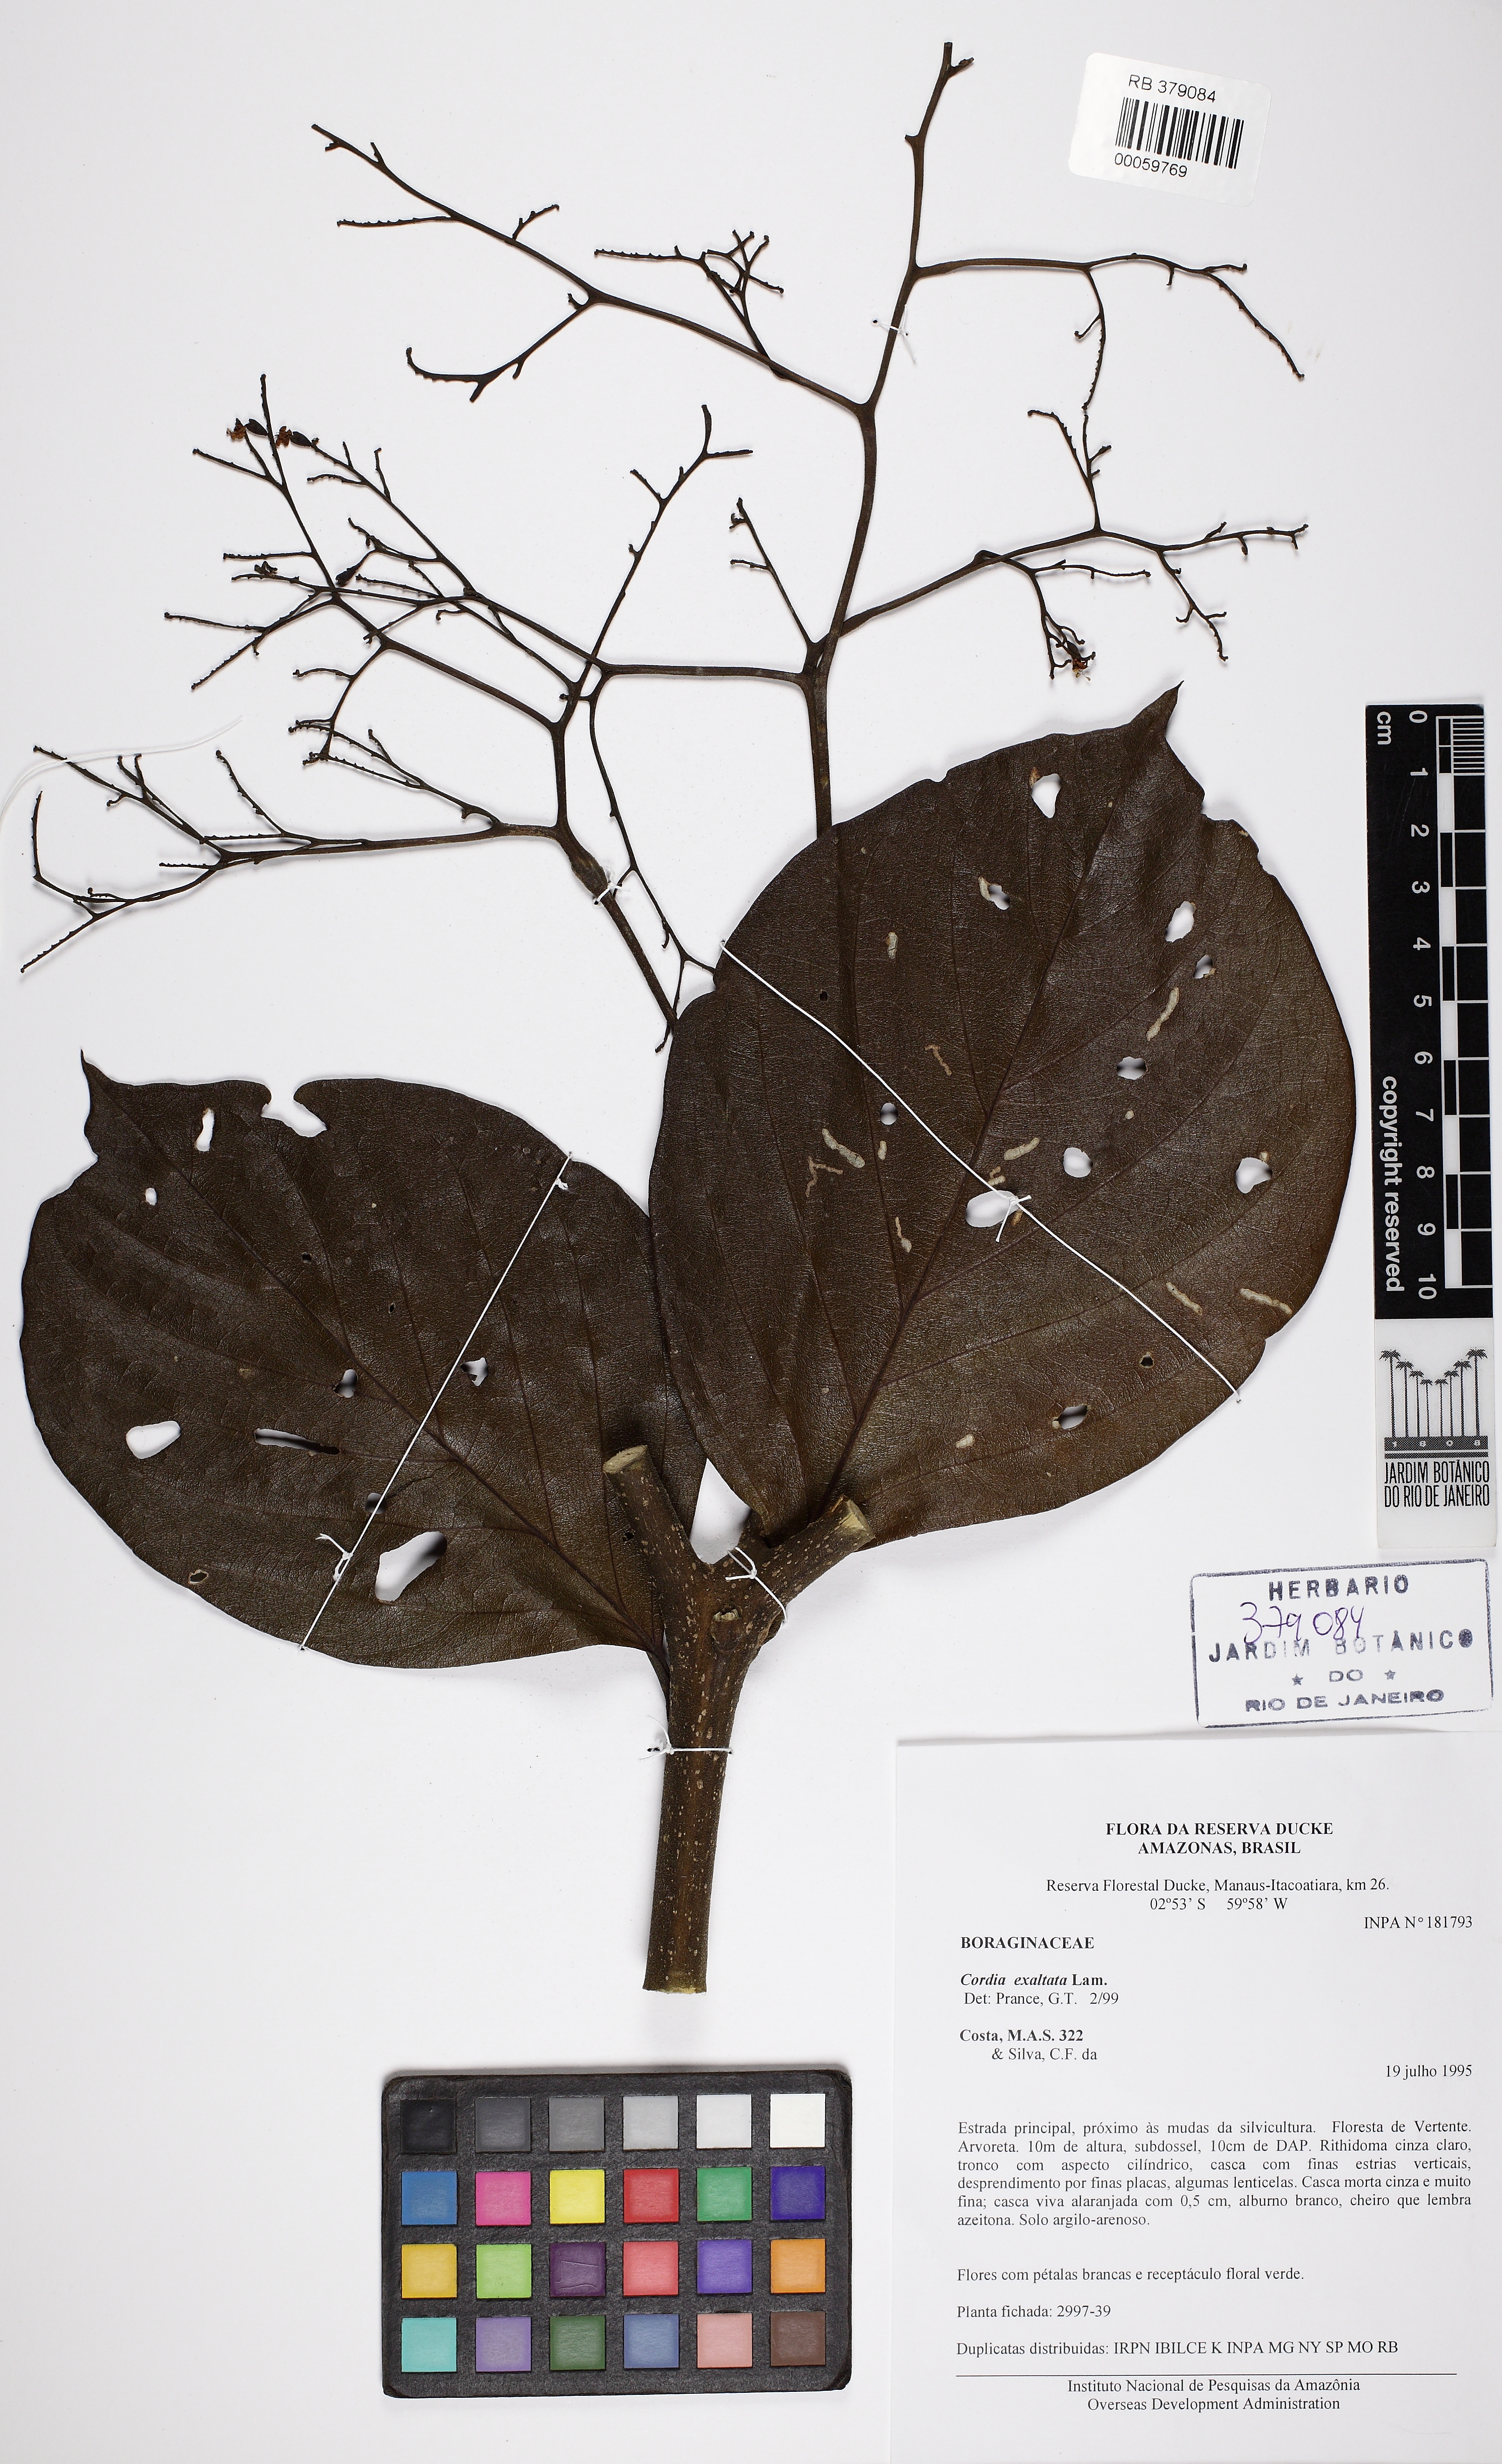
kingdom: Plantae
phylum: Tracheophyta
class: Magnoliopsida
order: Boraginales
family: Cordiaceae
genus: Cordia
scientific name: Cordia exaltata
